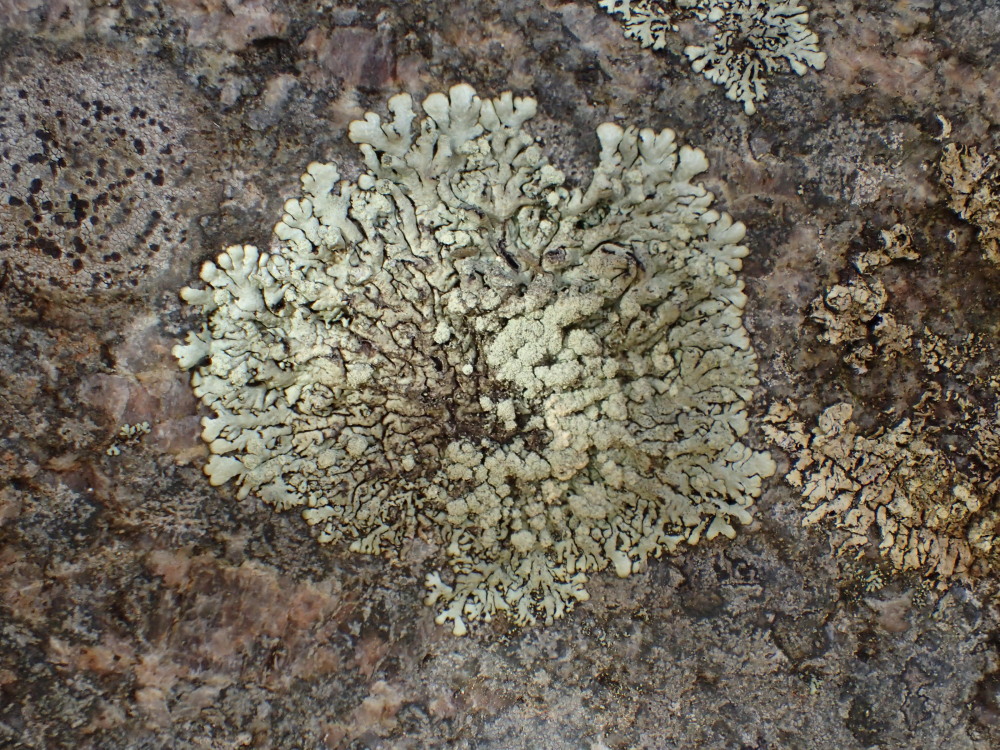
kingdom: Fungi
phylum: Ascomycota
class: Lecanoromycetes
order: Lecanorales
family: Parmeliaceae
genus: Xanthoparmelia
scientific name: Xanthoparmelia mougeotii
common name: liden skållav
